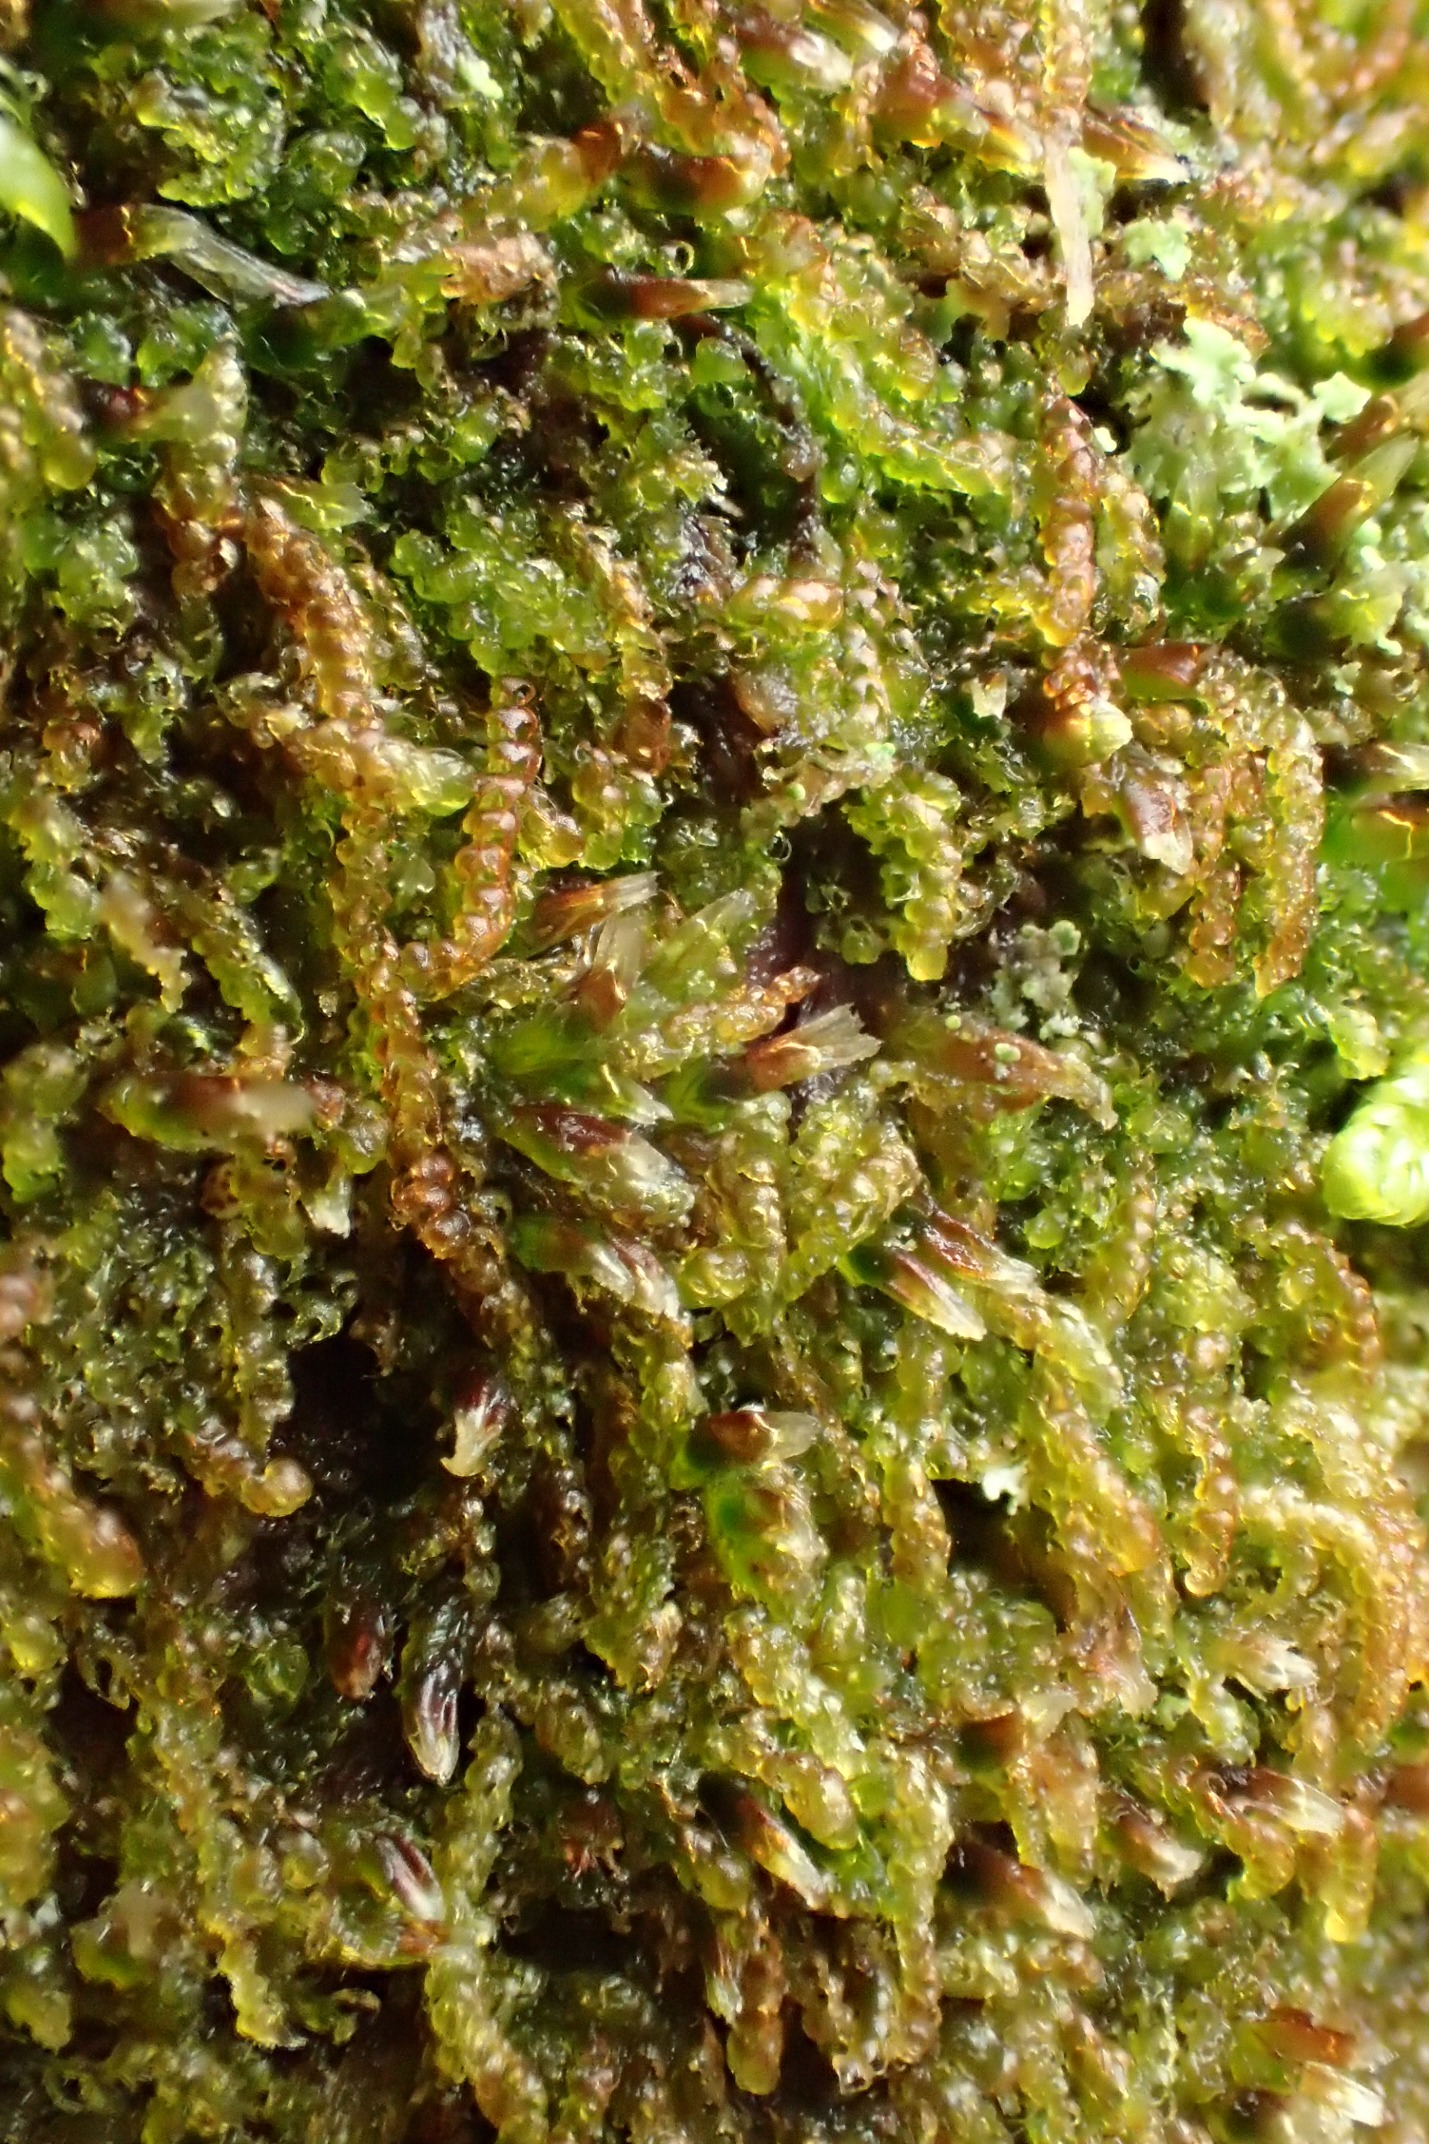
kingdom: Plantae
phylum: Marchantiophyta
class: Jungermanniopsida
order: Jungermanniales
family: Cephaloziaceae
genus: Nowellia
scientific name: Nowellia curvifolia
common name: Krumbladet stødmos
